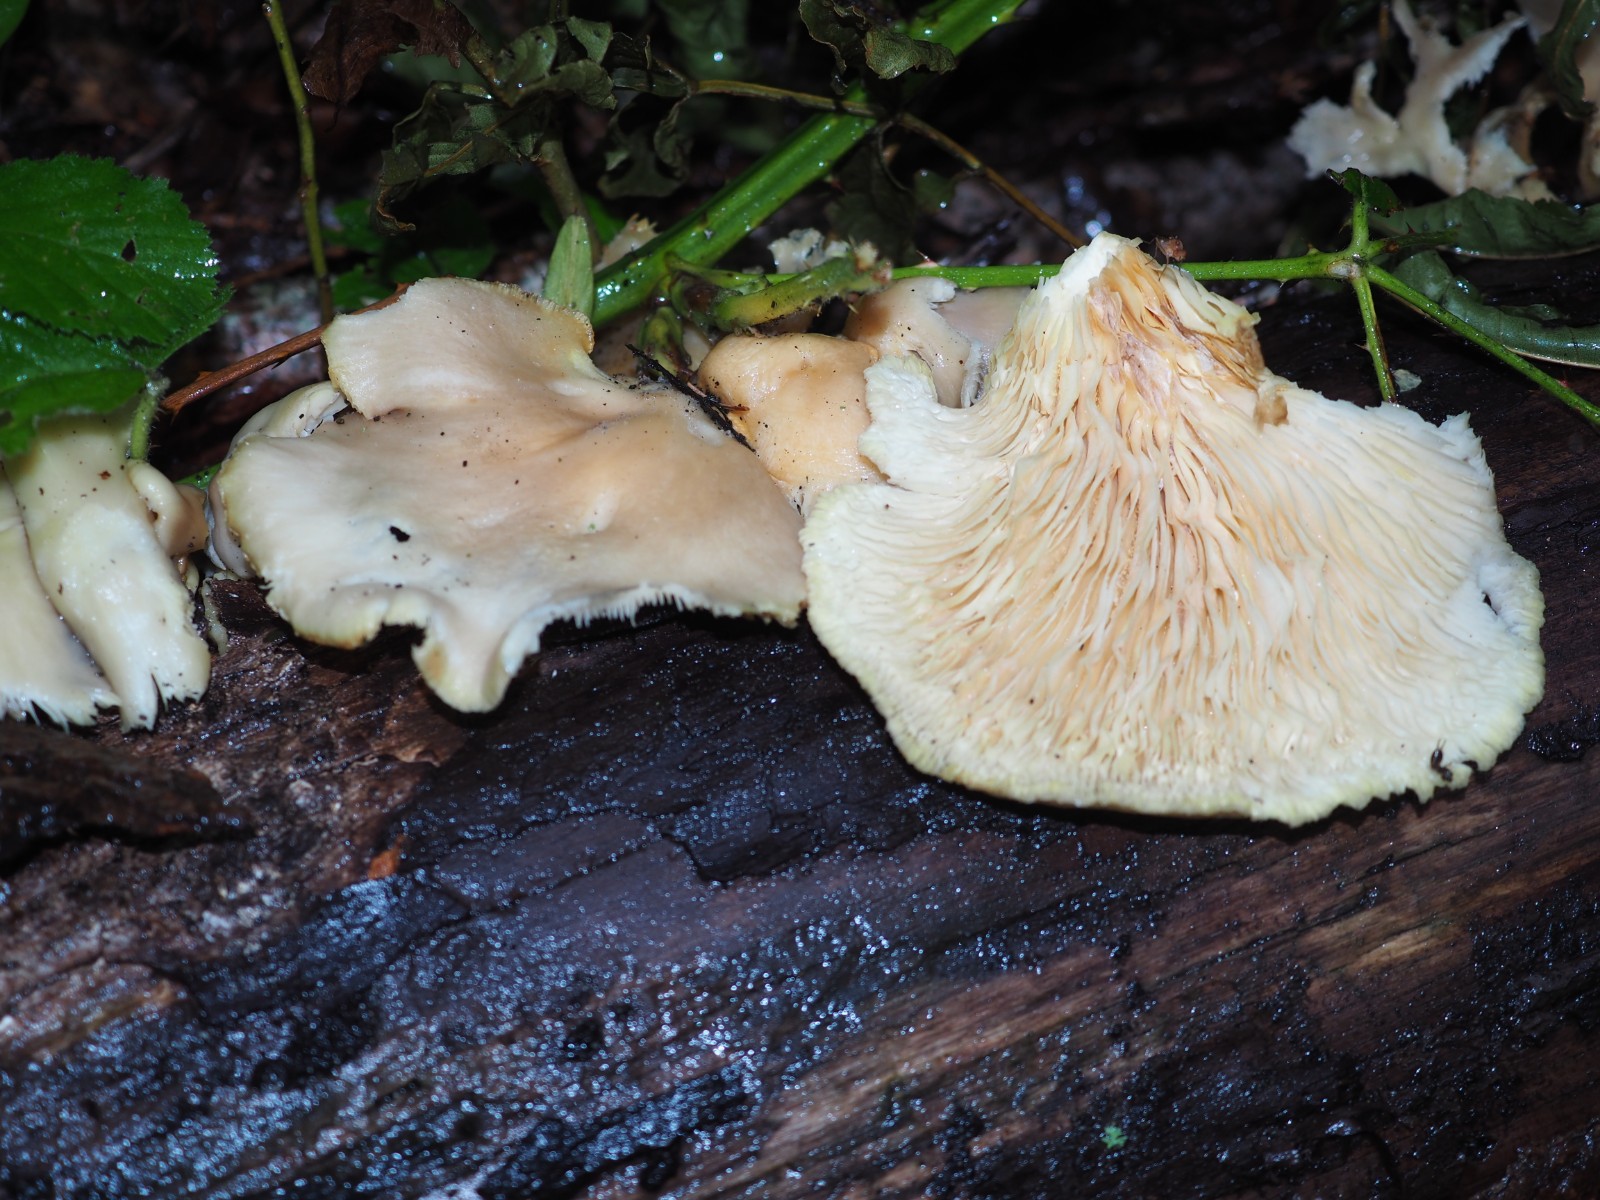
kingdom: Fungi
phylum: Basidiomycota
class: Agaricomycetes
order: Agaricales
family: Pleurotaceae
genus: Pleurotus
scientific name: Pleurotus pulmonarius
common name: sommer-østershat
